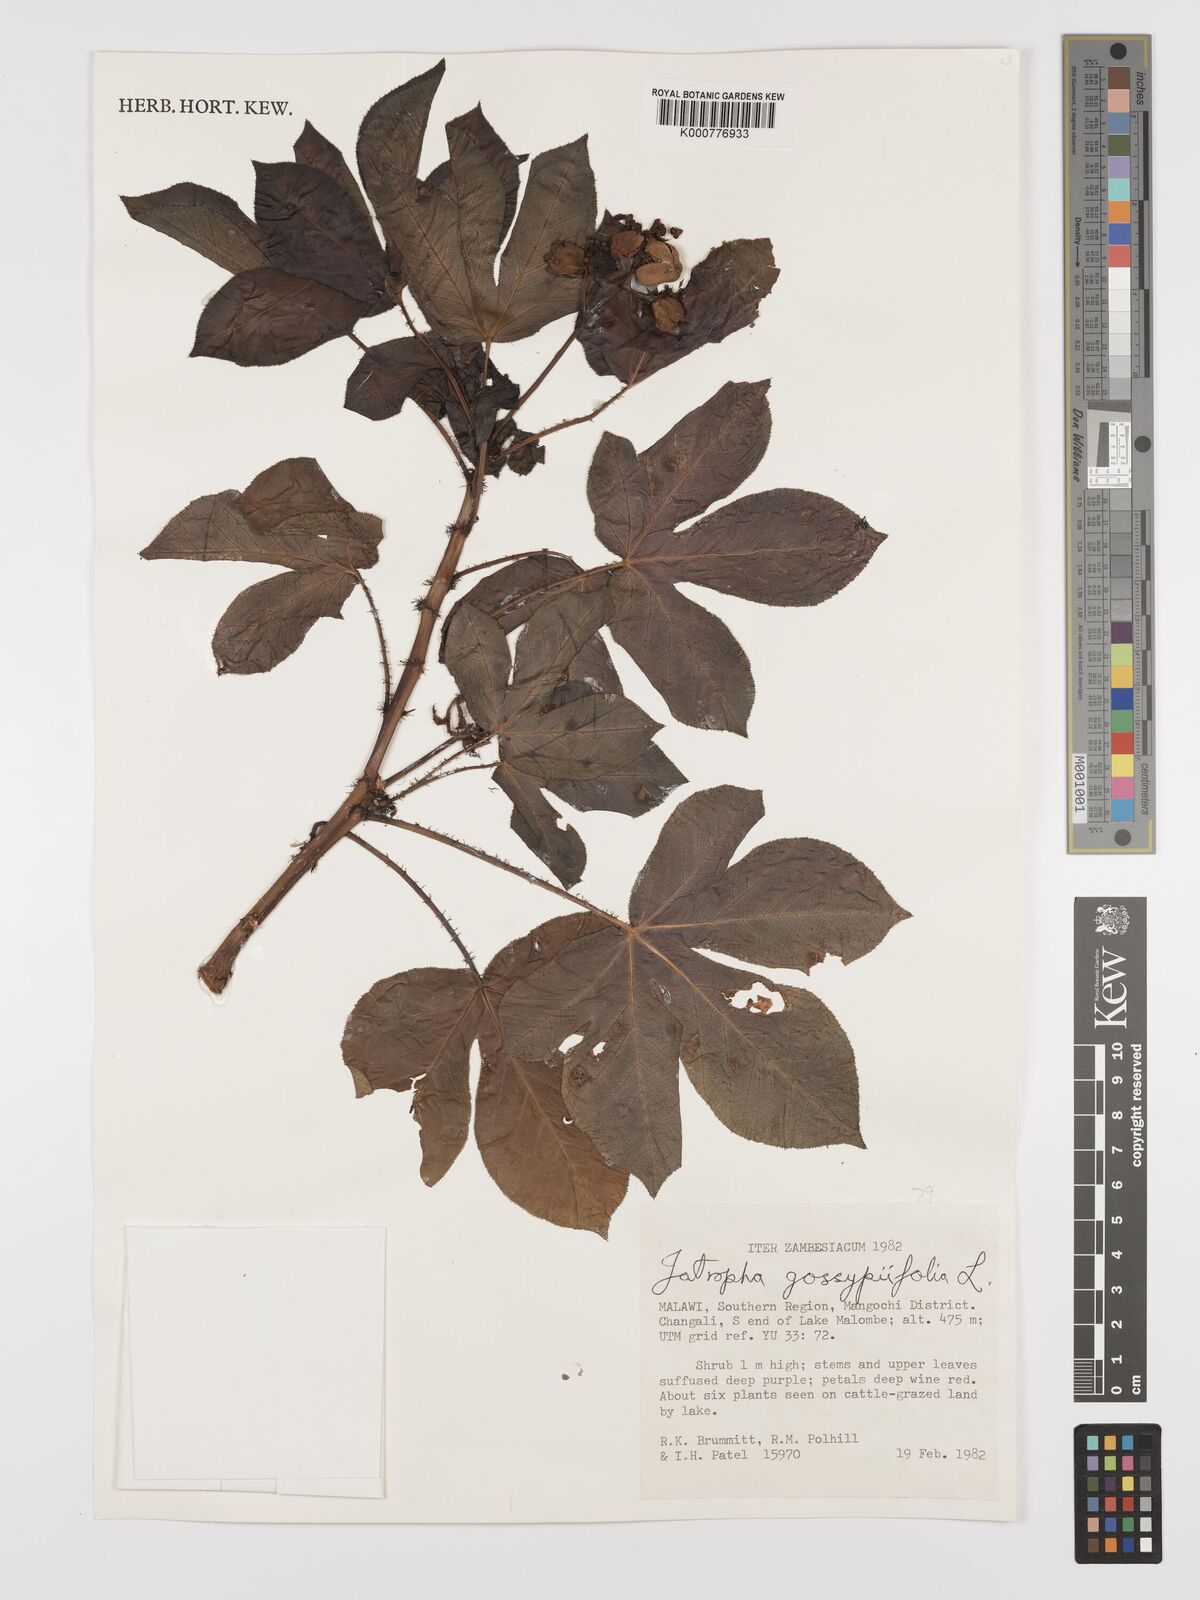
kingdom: Plantae
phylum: Tracheophyta
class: Magnoliopsida
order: Malpighiales
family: Euphorbiaceae
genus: Jatropha
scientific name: Jatropha gossypiifolia
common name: Bellyache bush
